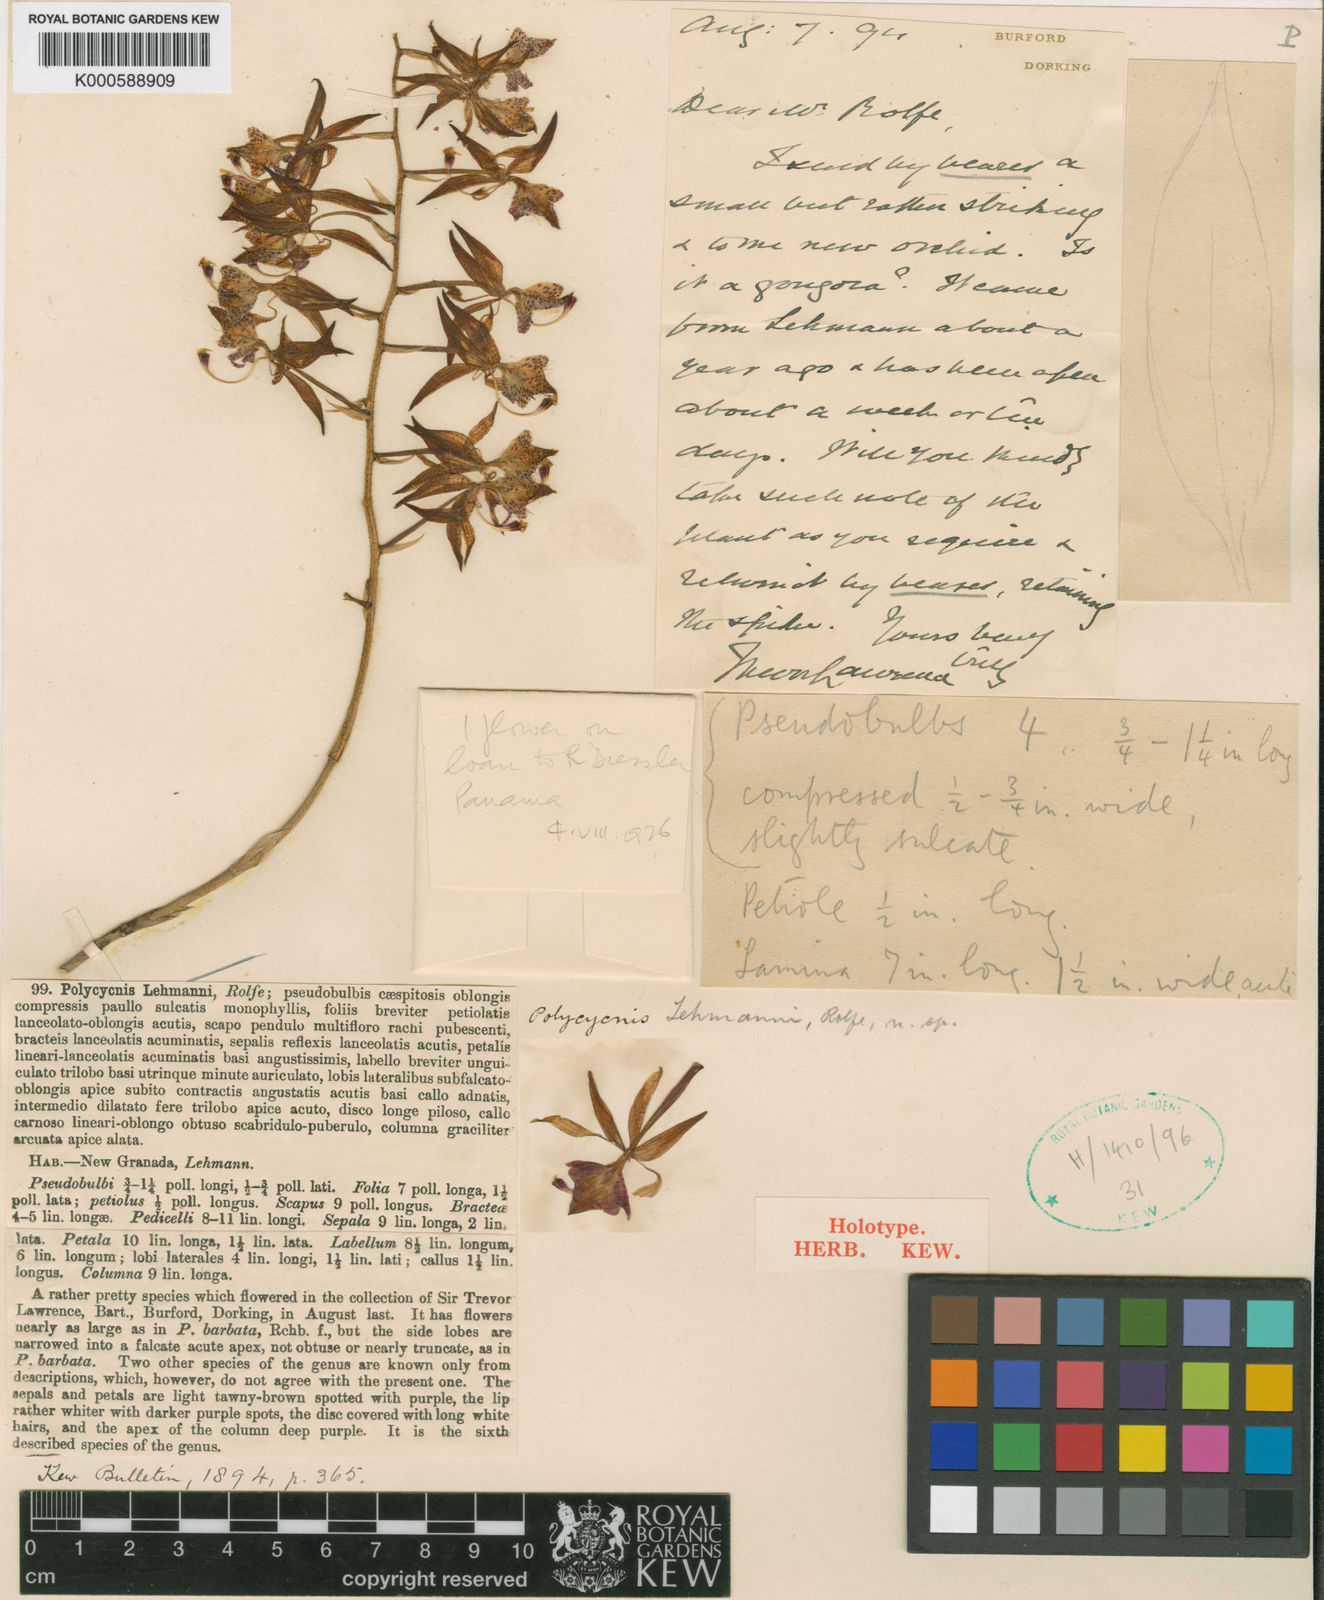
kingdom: Plantae
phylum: Tracheophyta
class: Liliopsida
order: Asparagales
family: Orchidaceae
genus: Polycycnis
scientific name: Polycycnis lehmannii
